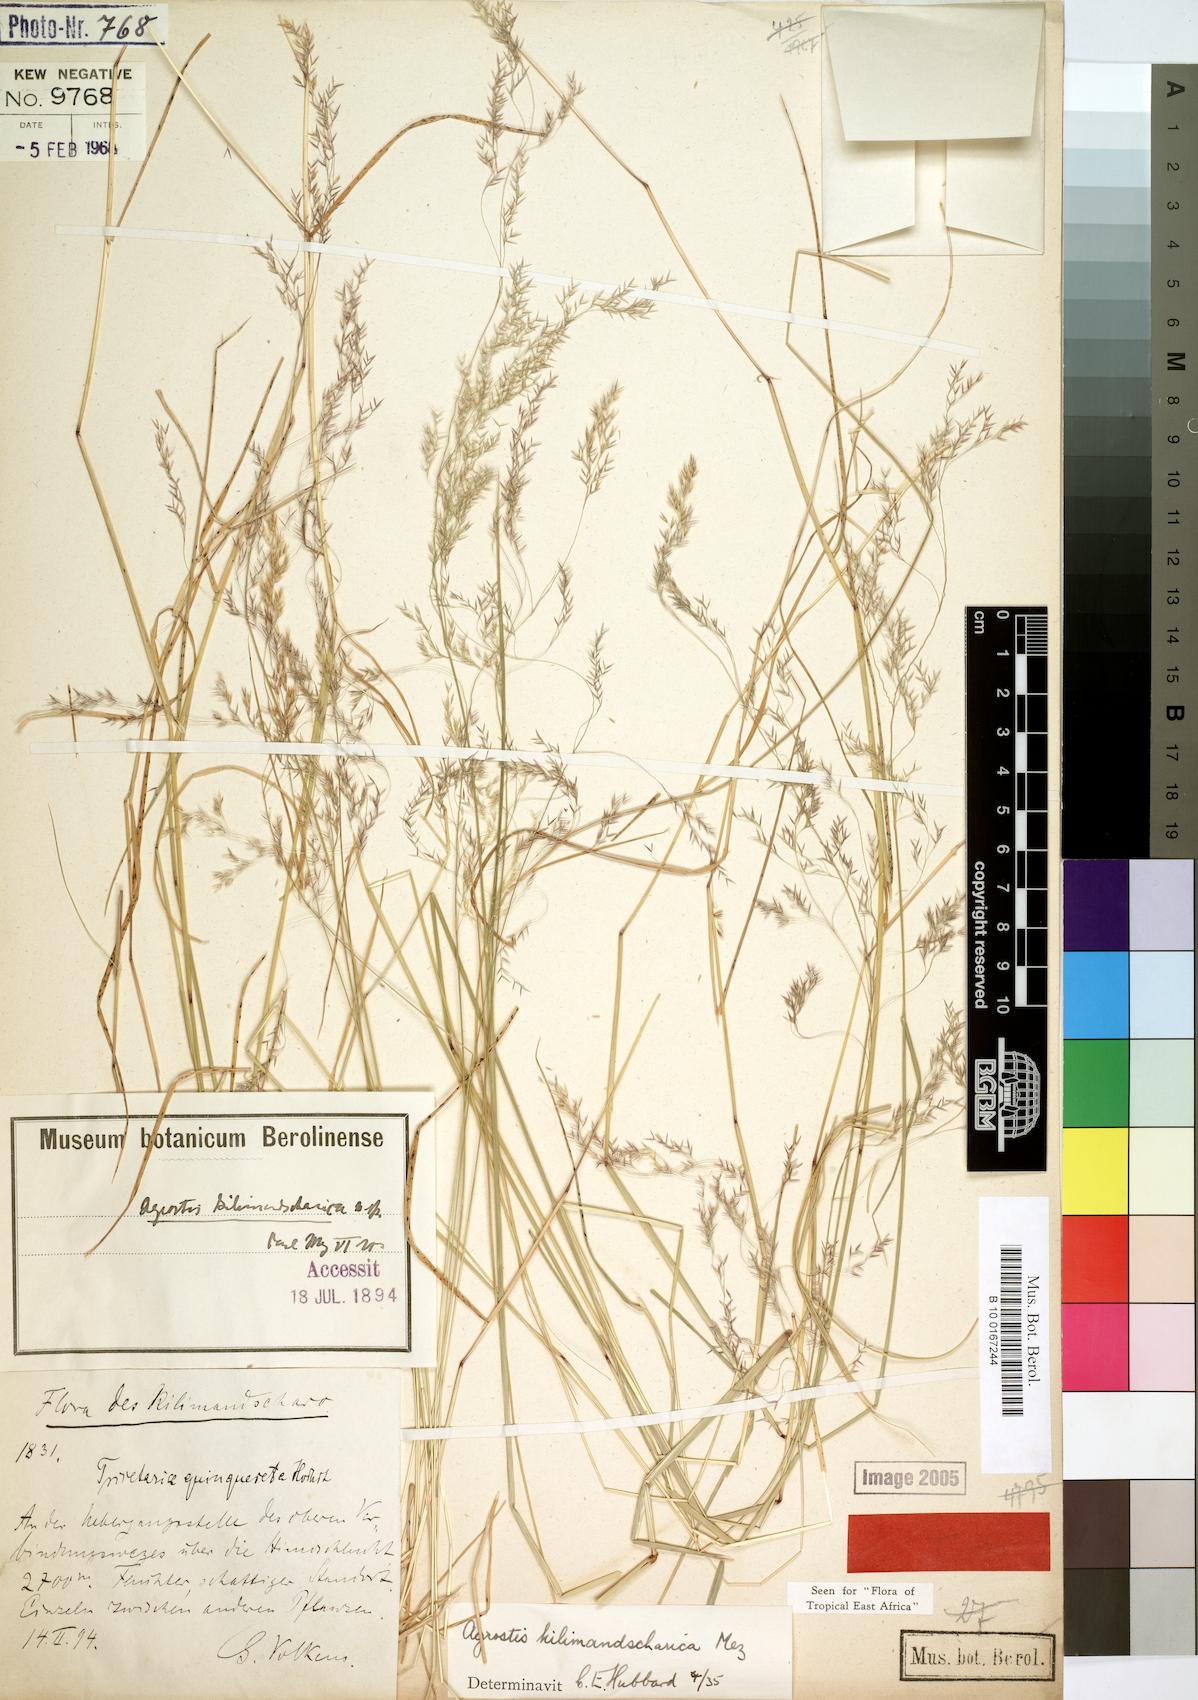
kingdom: Plantae
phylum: Tracheophyta
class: Liliopsida
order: Poales
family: Poaceae
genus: Agrostis
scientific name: Agrostis kilimandscharica
